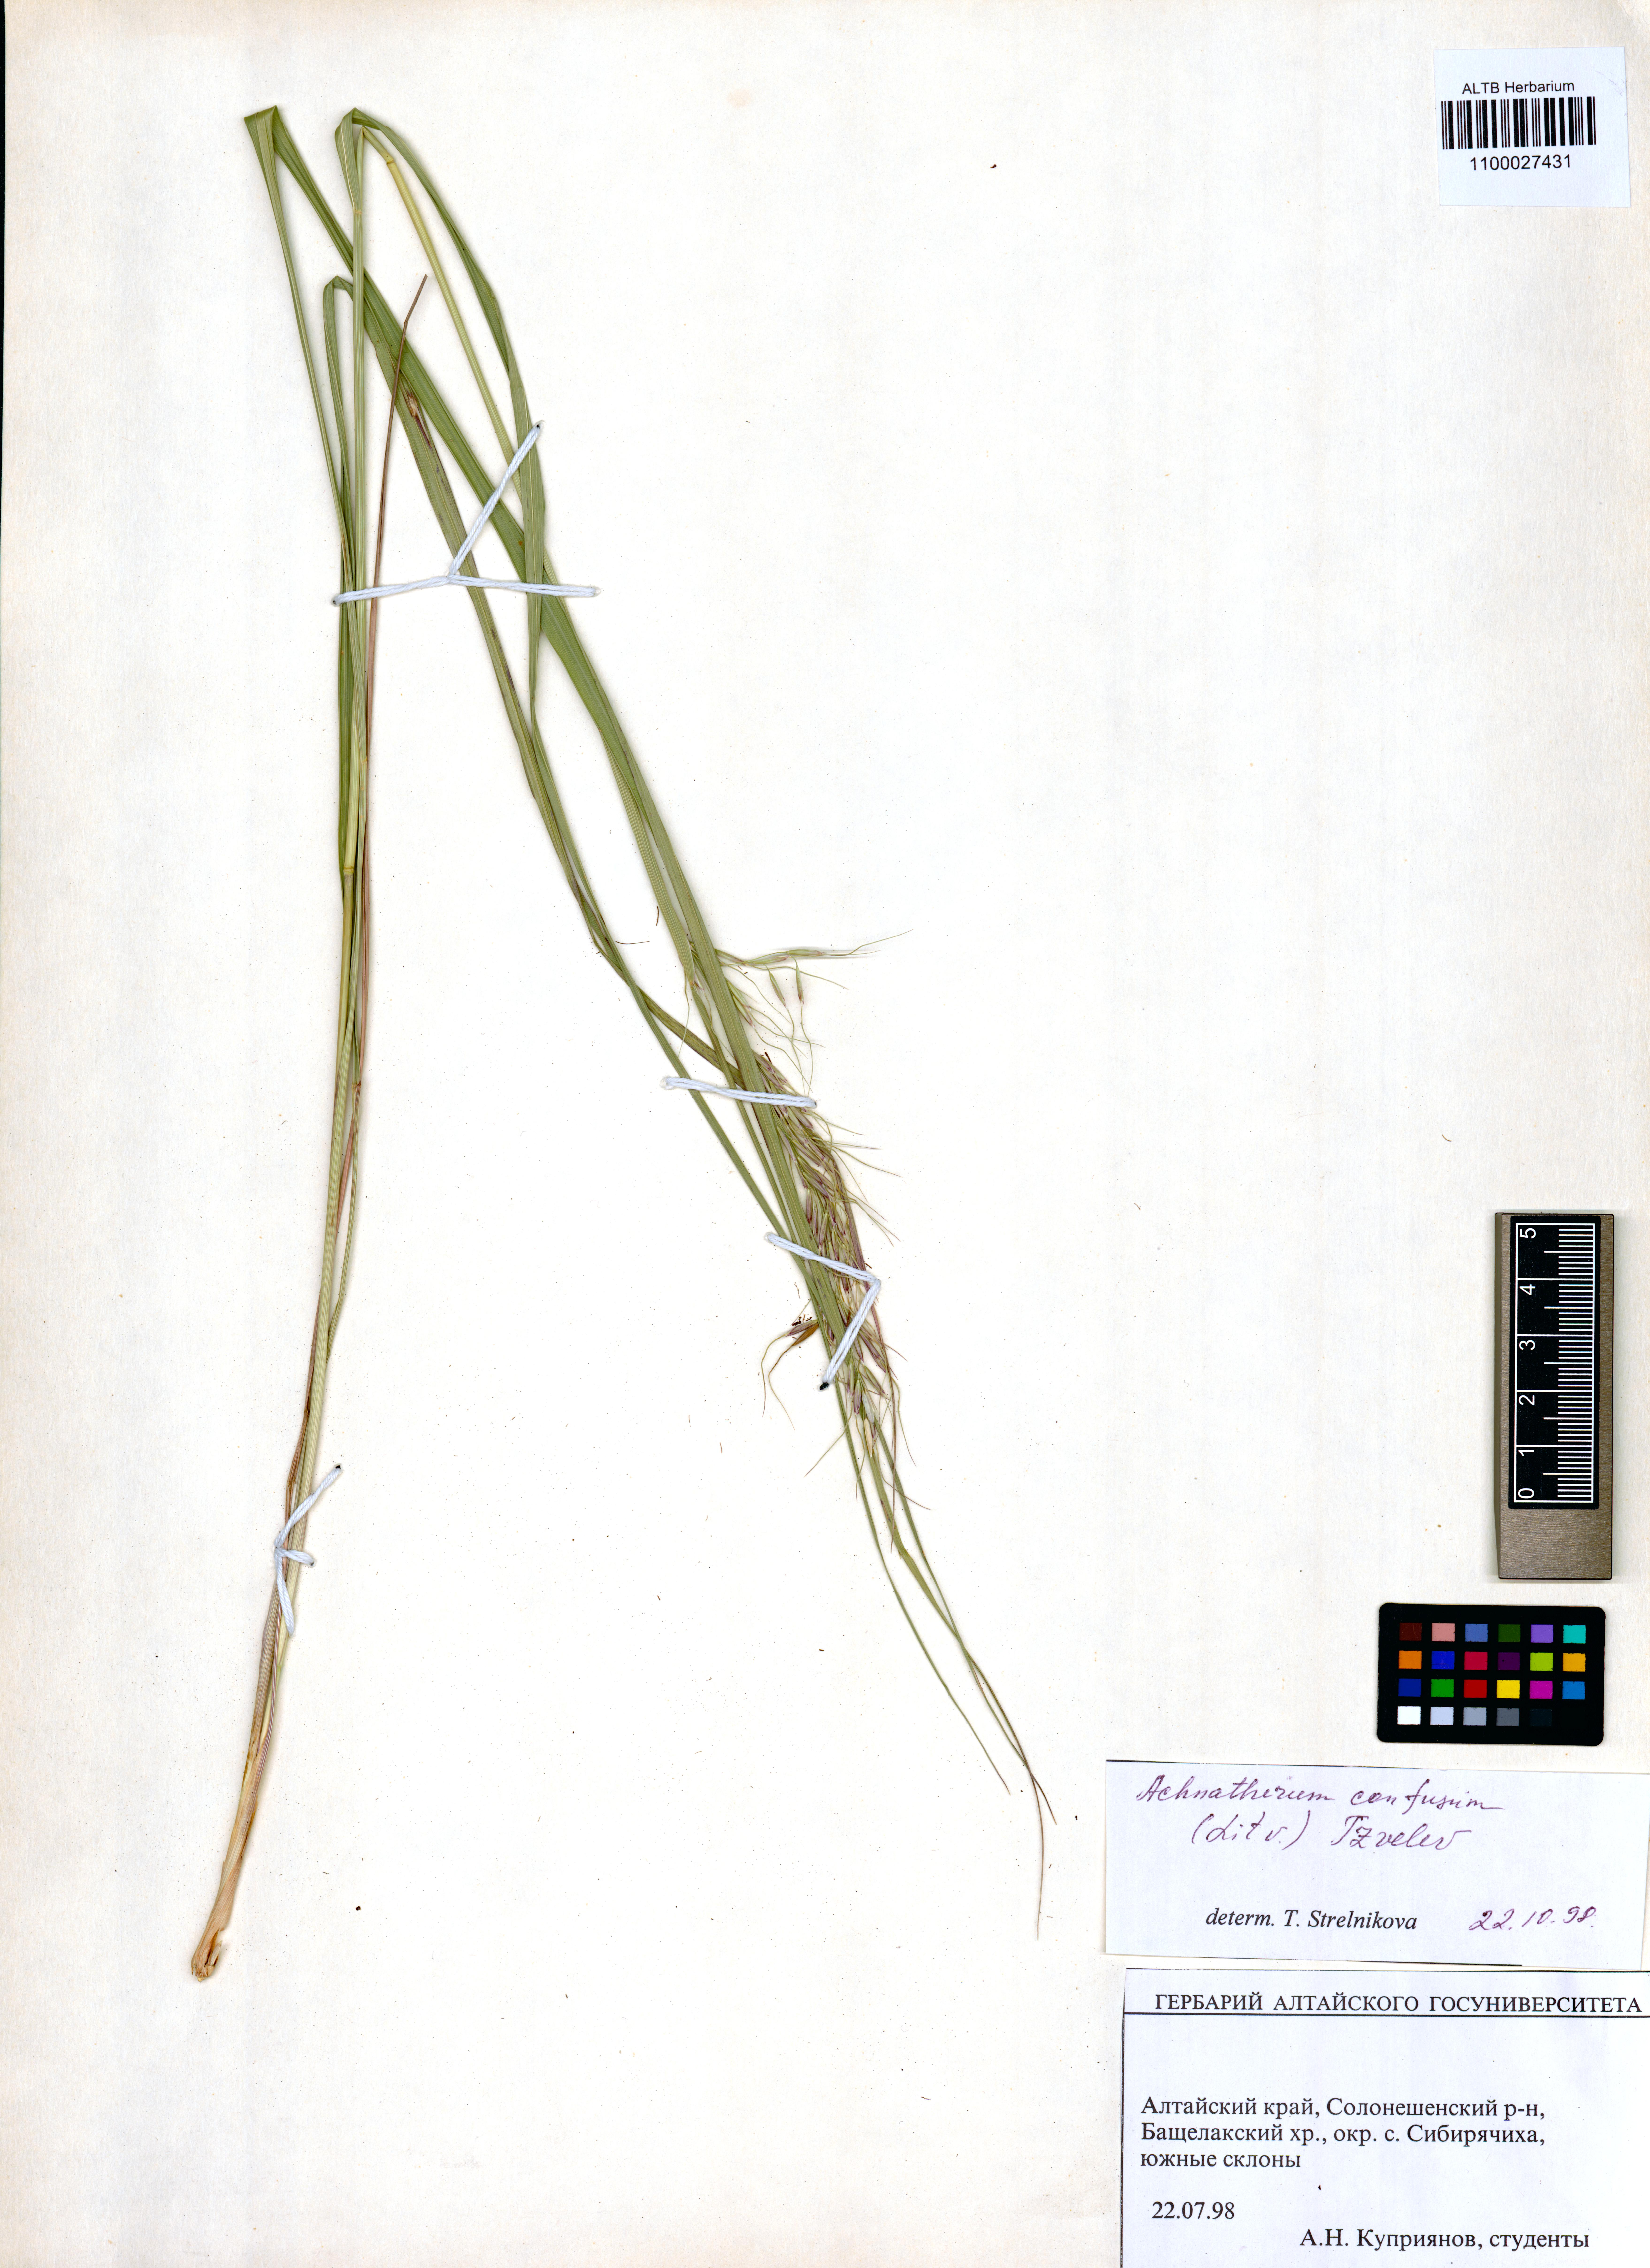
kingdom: Plantae
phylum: Tracheophyta
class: Liliopsida
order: Poales
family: Poaceae
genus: Achnatherum
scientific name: Achnatherum confusum
